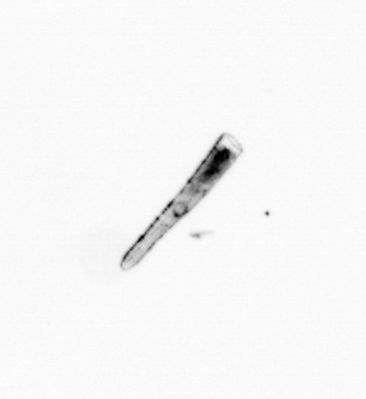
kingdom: Chromista
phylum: Ochrophyta
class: Bacillariophyceae
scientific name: Bacillariophyceae
